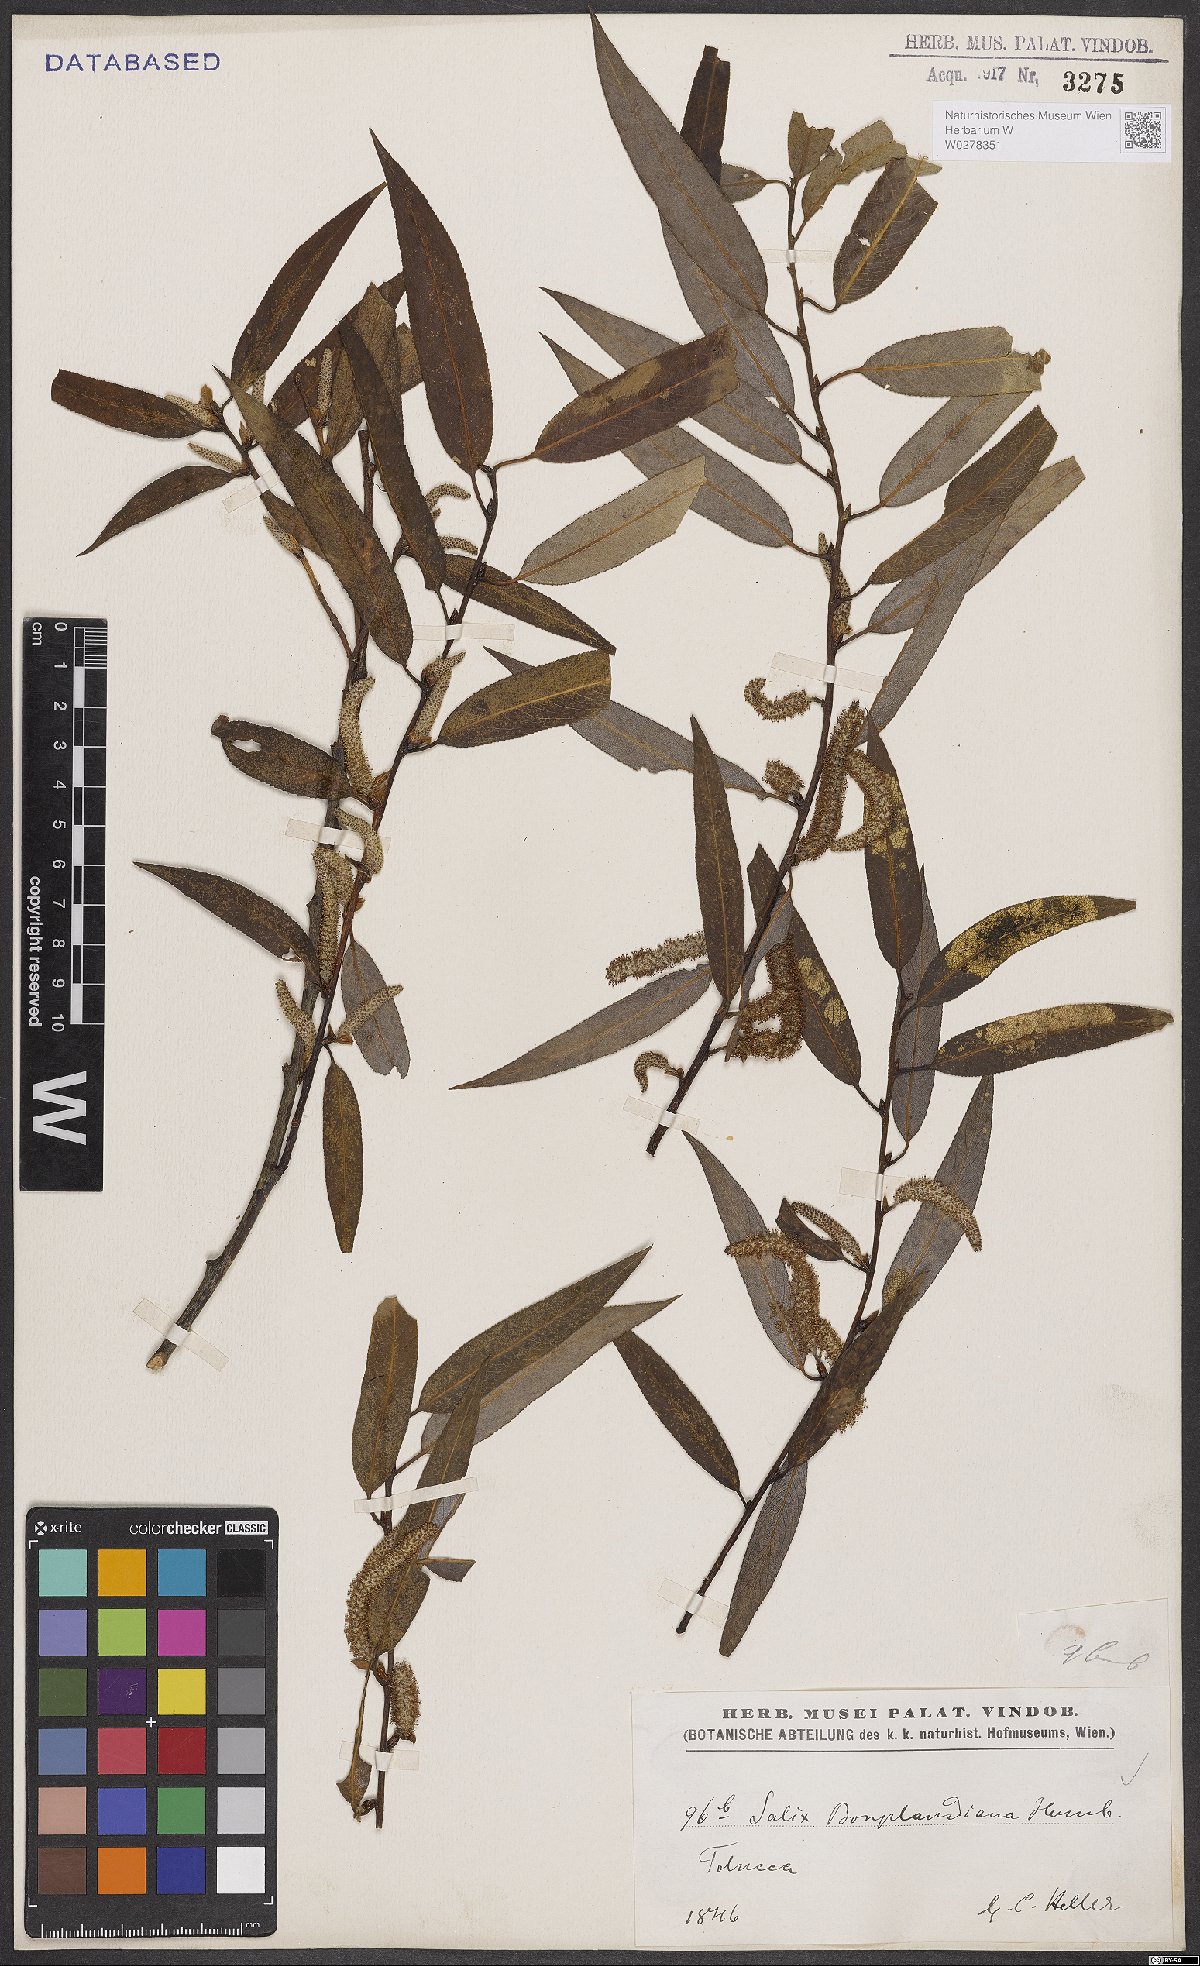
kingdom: Plantae
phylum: Tracheophyta
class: Magnoliopsida
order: Malpighiales
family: Salicaceae
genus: Salix
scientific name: Salix bonplandiana
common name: Bonpland’s willow
